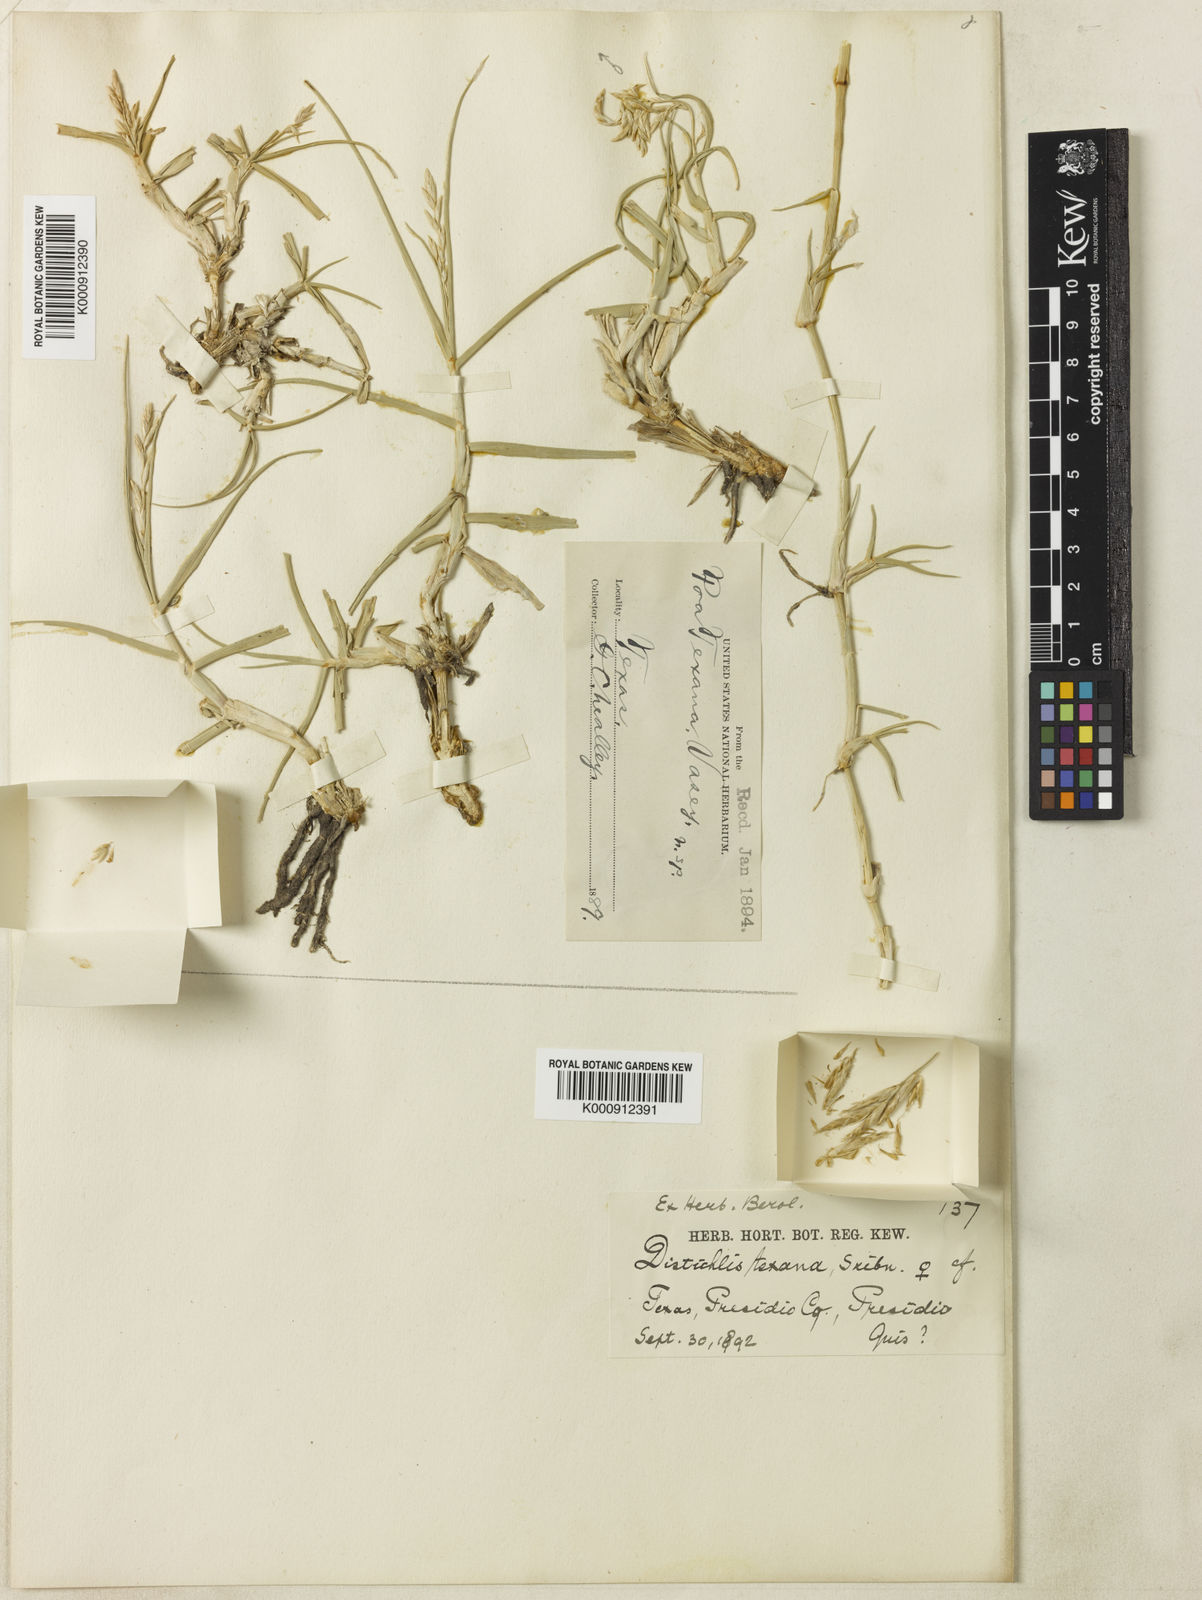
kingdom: Plantae
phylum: Tracheophyta
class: Liliopsida
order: Poales
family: Poaceae
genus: Allolepis
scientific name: Allolepis texana
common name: False salt grass
